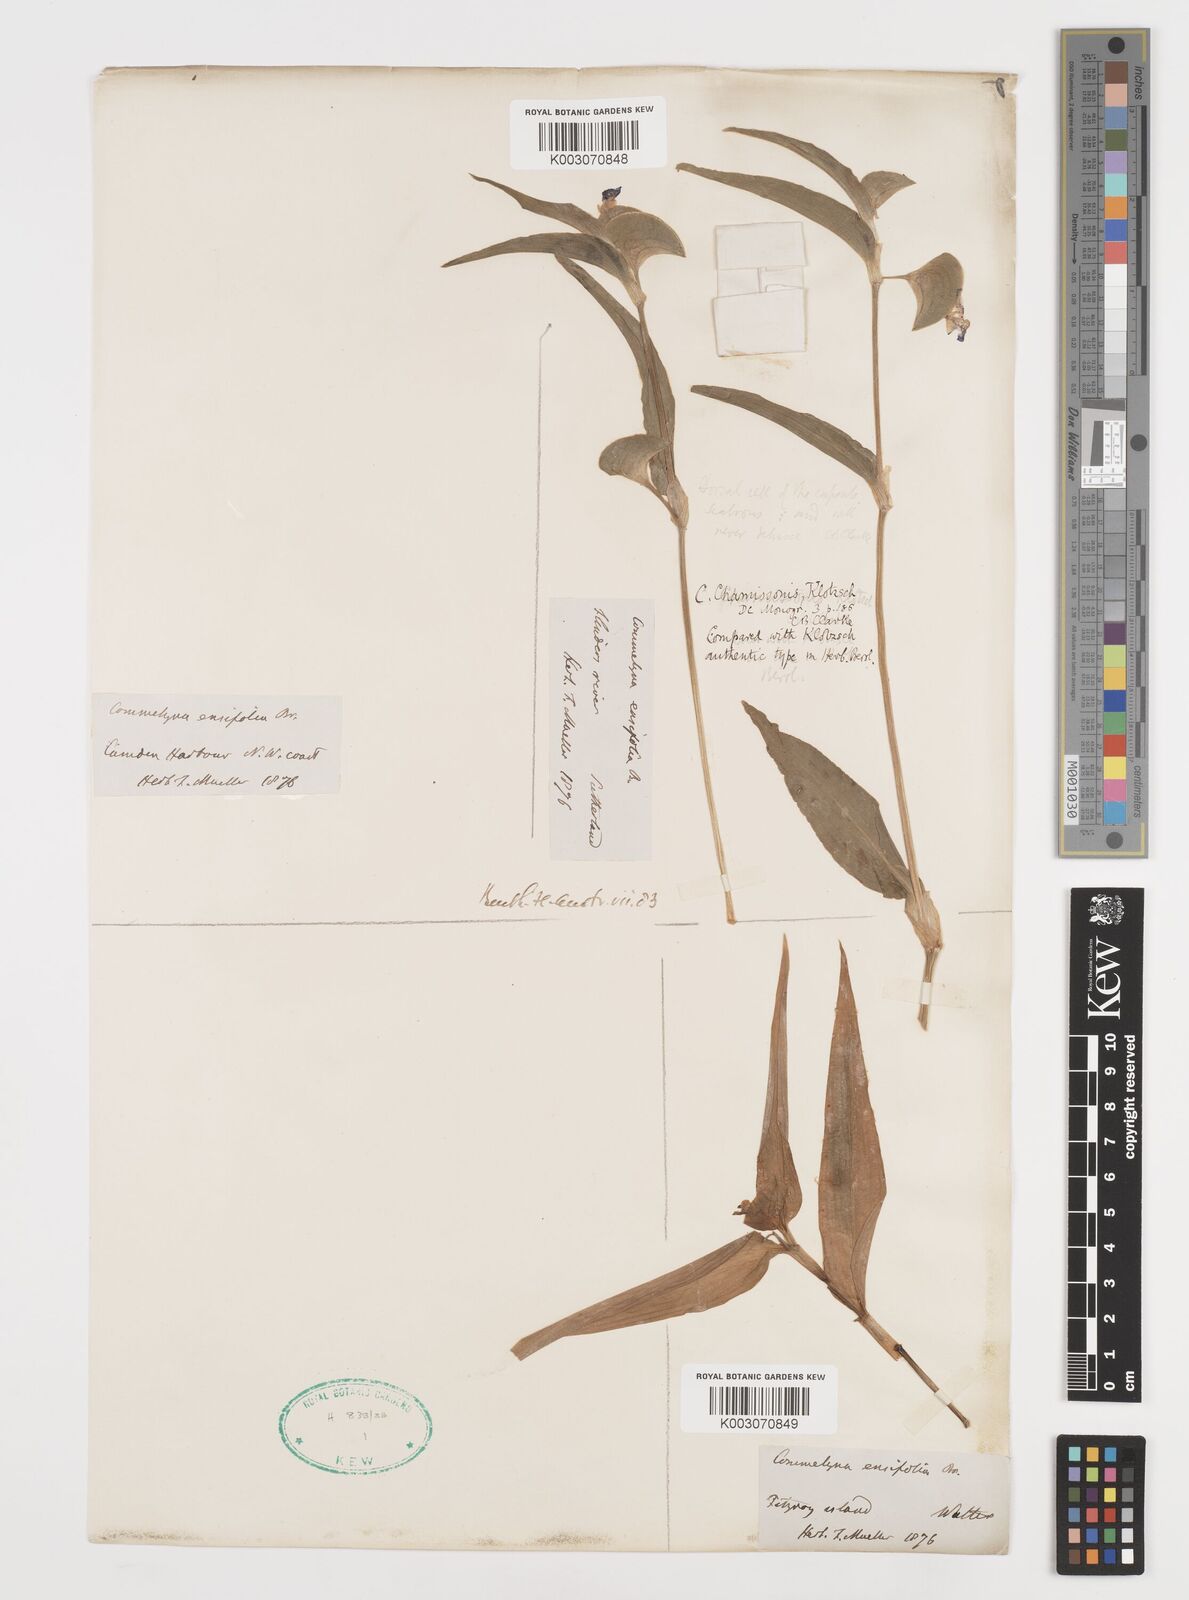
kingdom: Plantae
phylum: Tracheophyta
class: Liliopsida
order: Commelinales
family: Commelinaceae
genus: Commelina
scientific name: Commelina chamissonis
